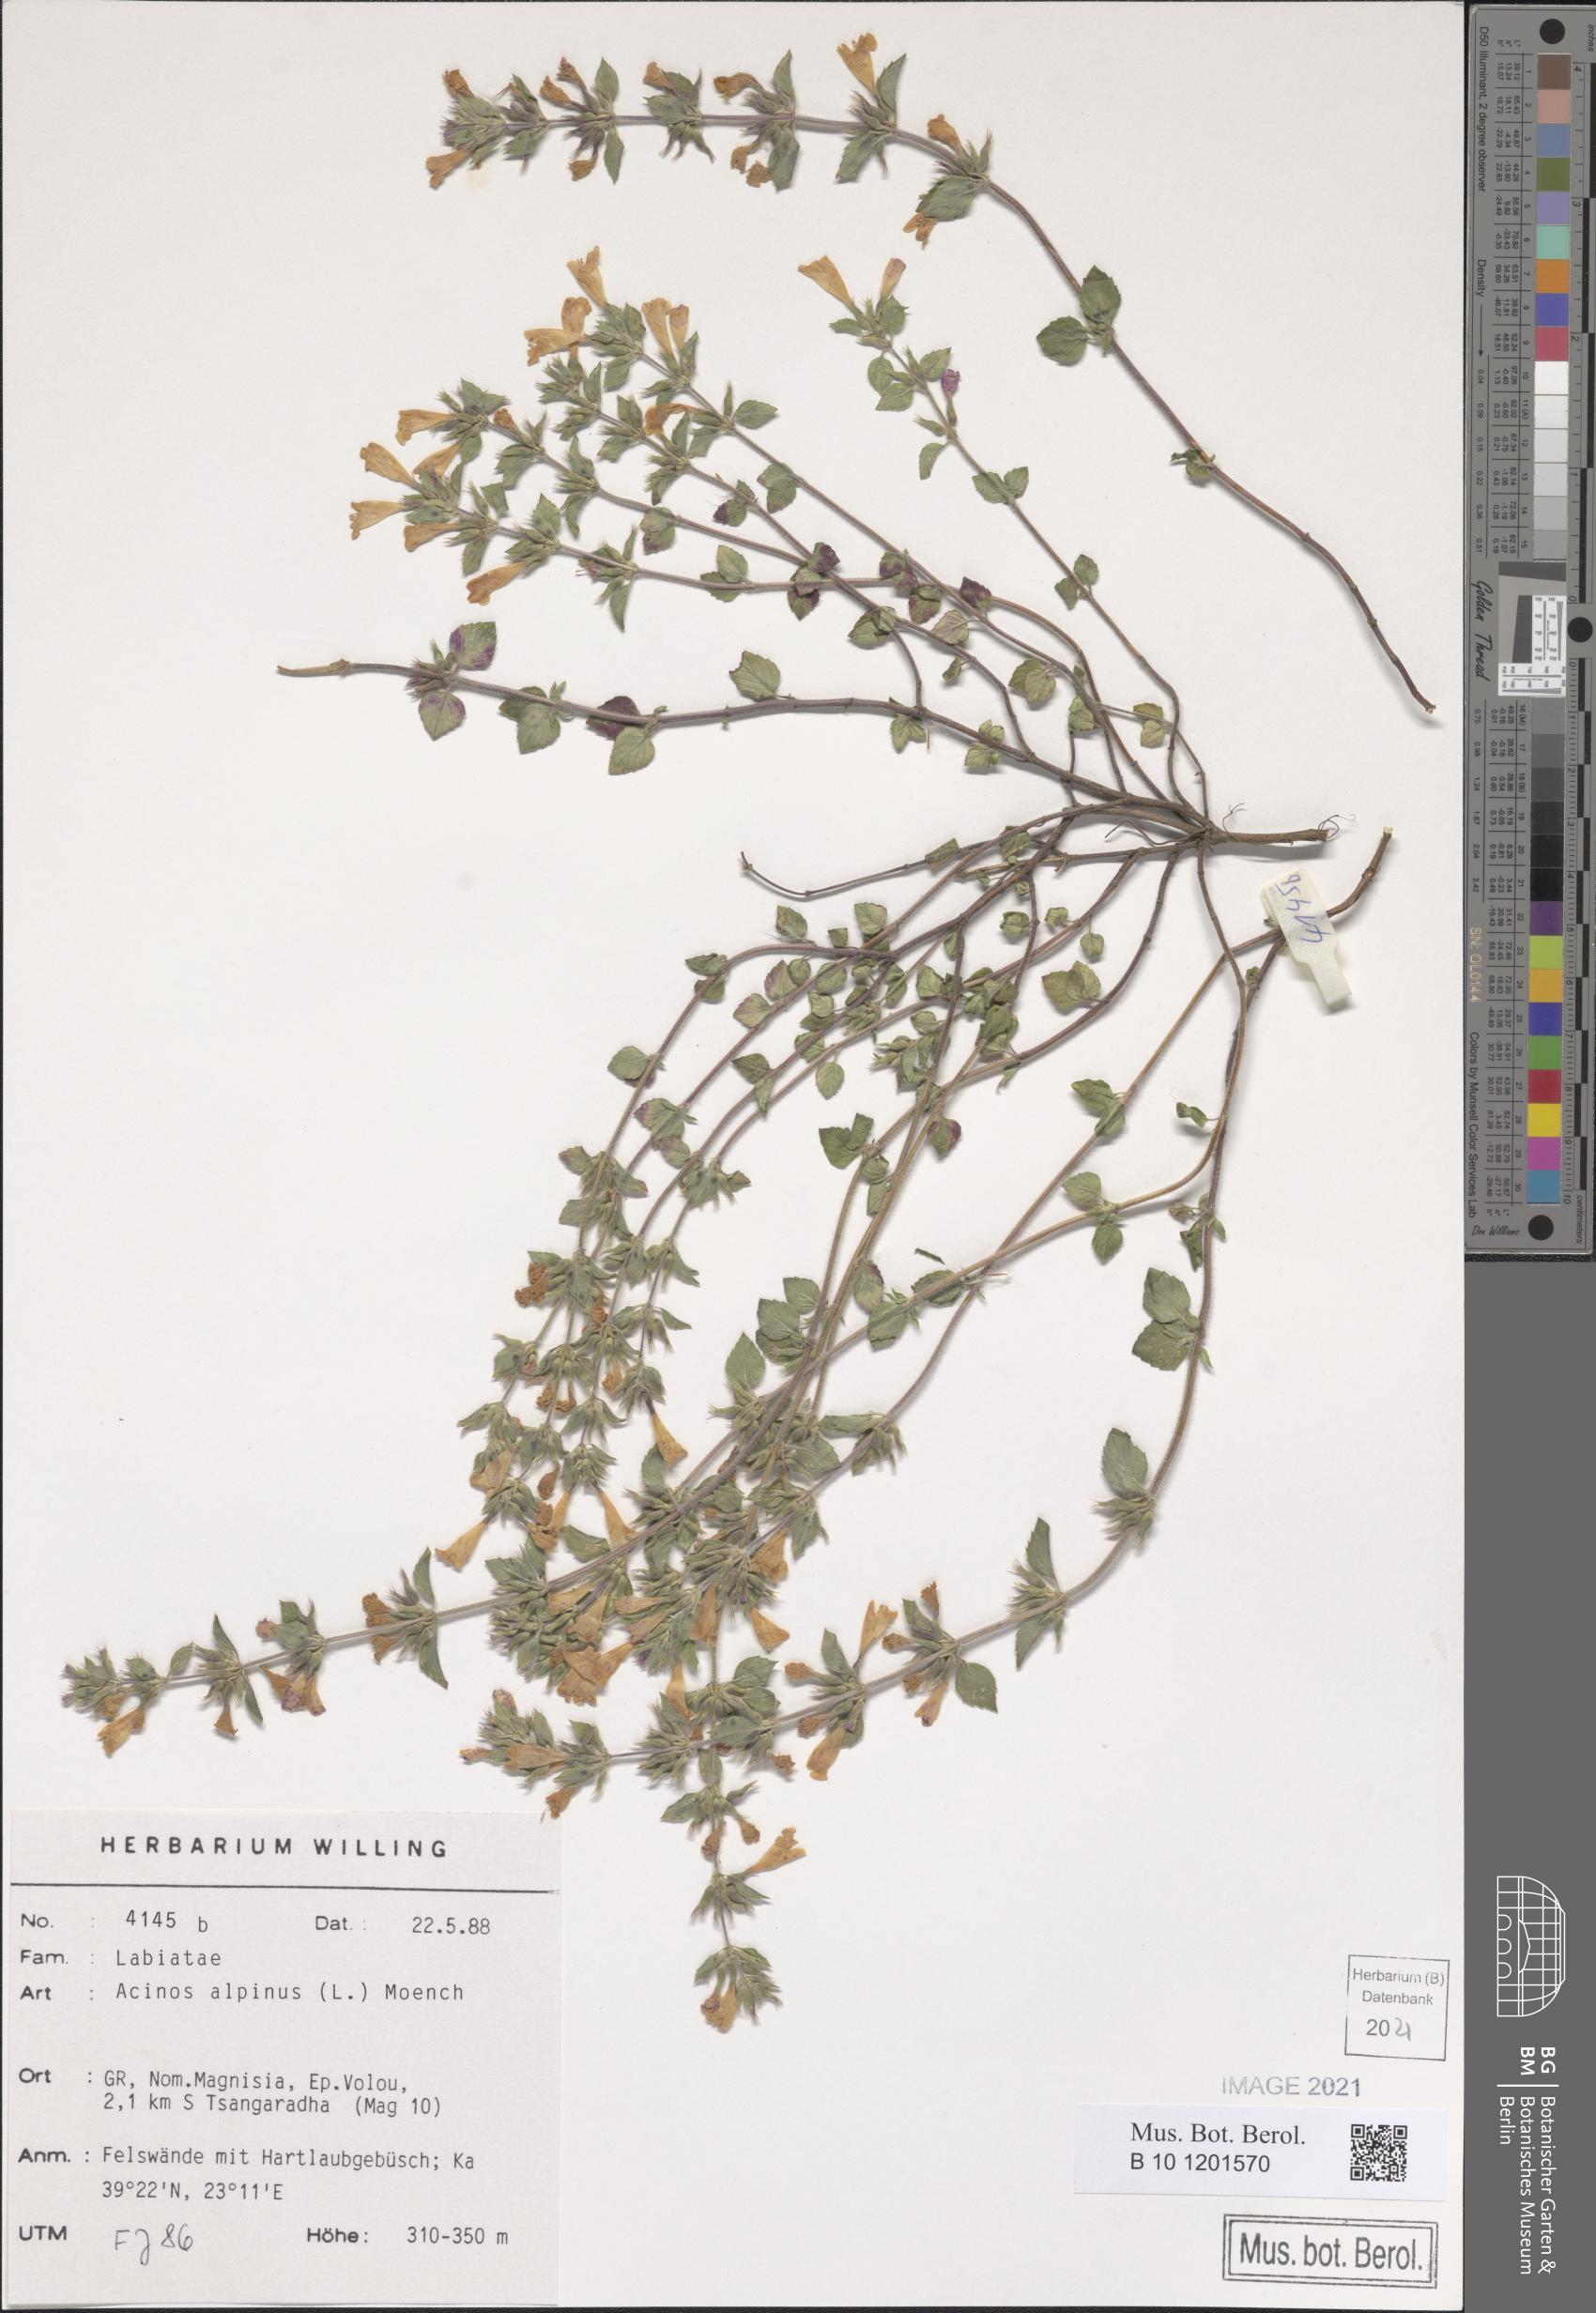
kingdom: Plantae
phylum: Tracheophyta
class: Magnoliopsida
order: Lamiales
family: Lamiaceae
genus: Clinopodium
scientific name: Clinopodium alpinum
